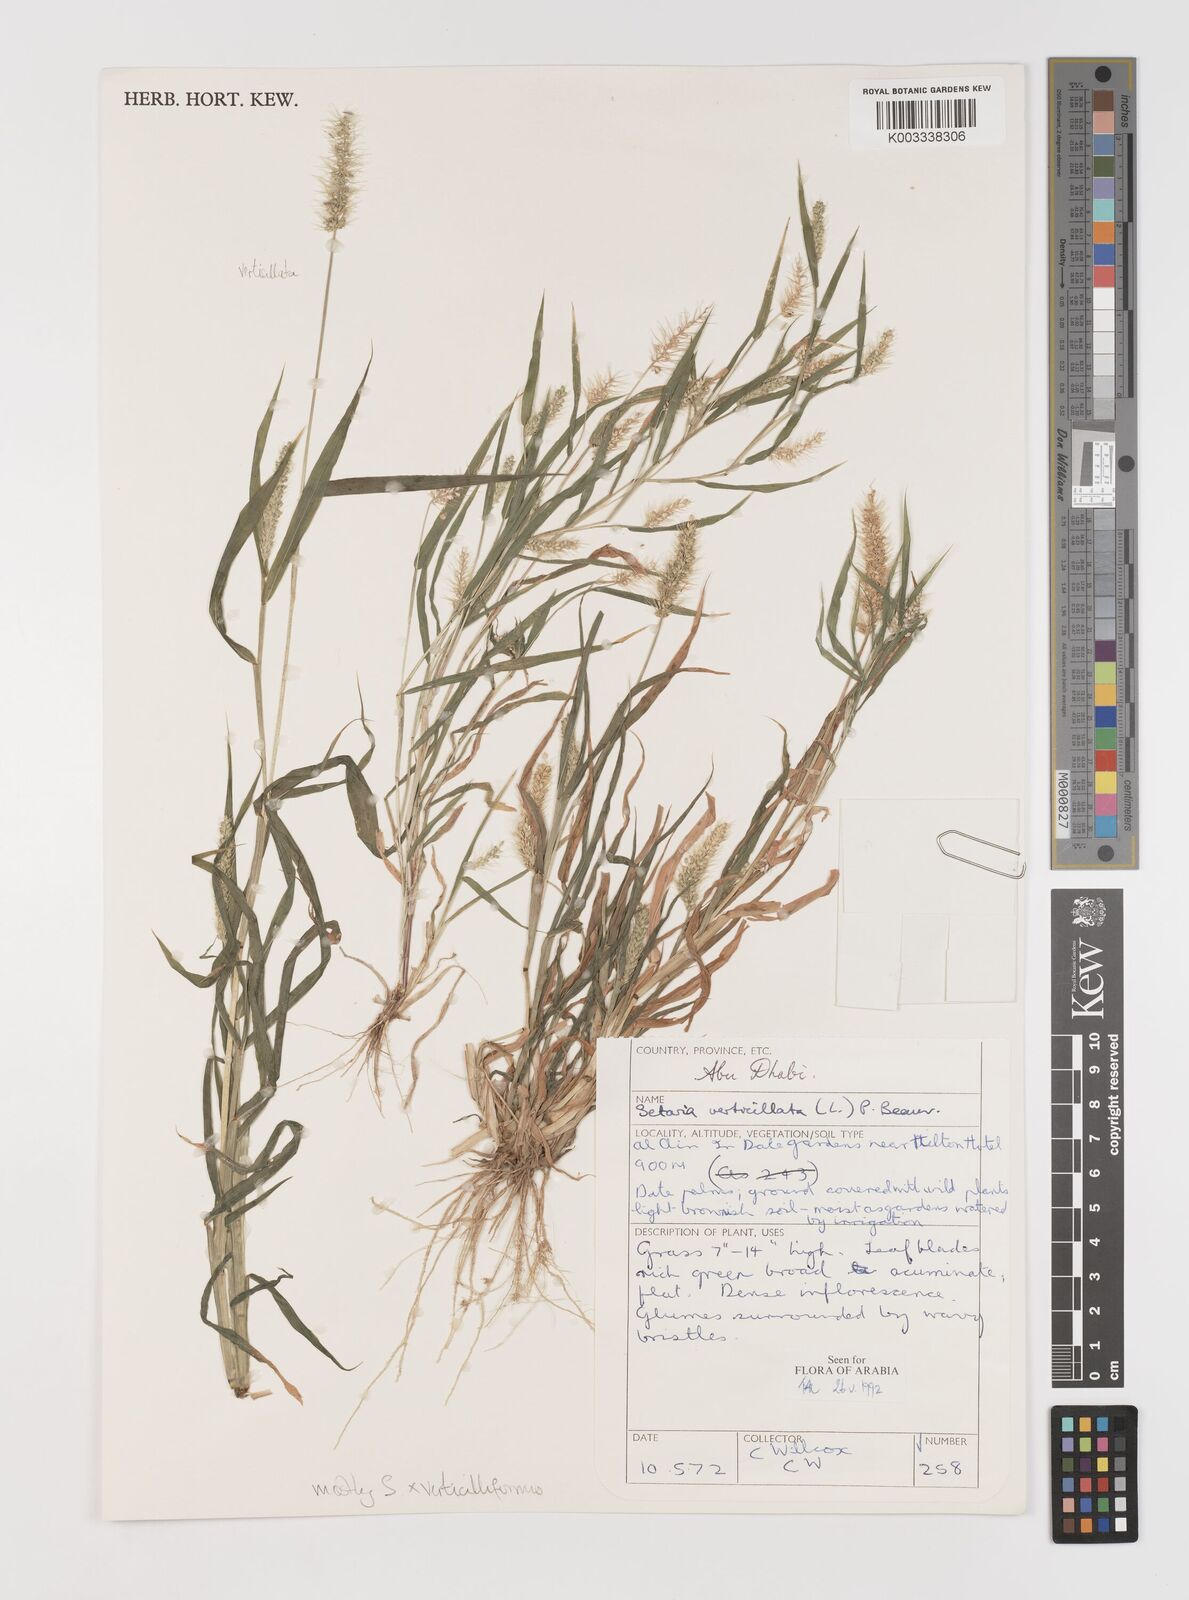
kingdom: Plantae
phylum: Tracheophyta
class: Liliopsida
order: Poales
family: Poaceae
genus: Setaria
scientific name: Setaria grisebachii
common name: Grisebach's bristle grass
